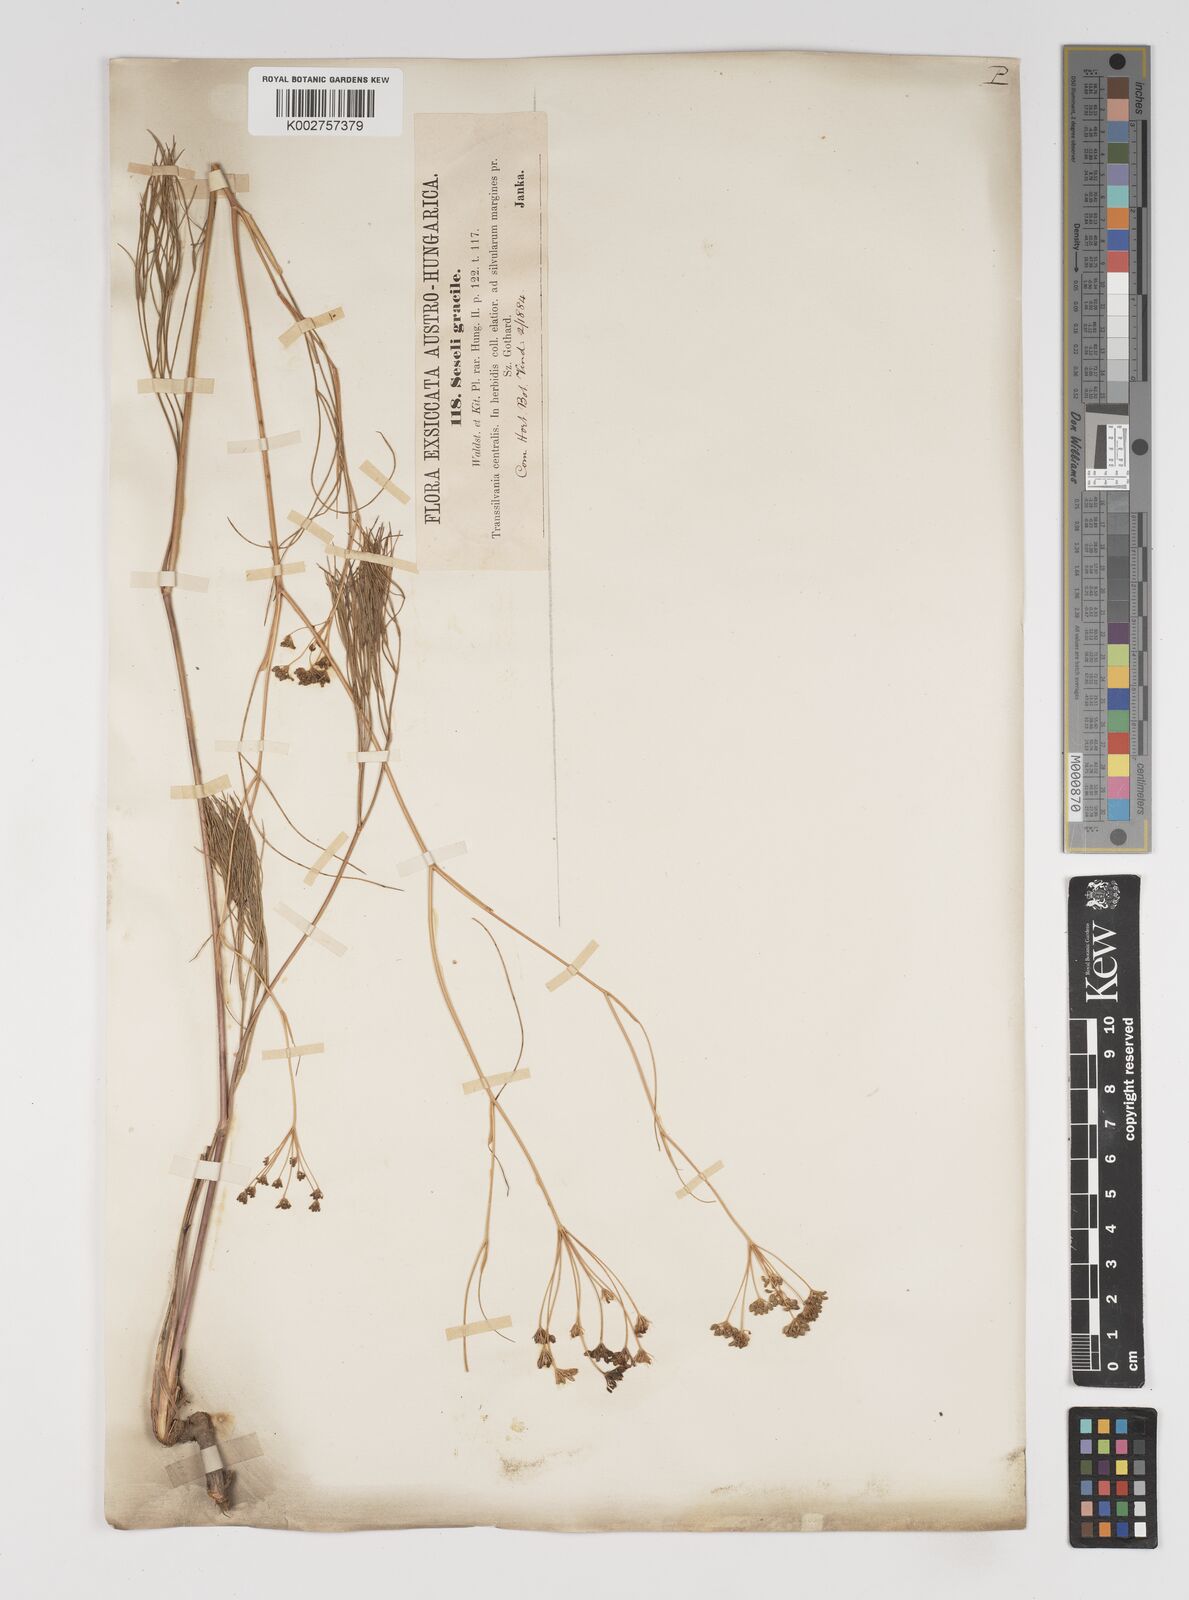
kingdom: Plantae
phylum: Tracheophyta
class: Magnoliopsida
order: Apiales
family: Apiaceae
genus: Seseli
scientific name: Seseli gracile
